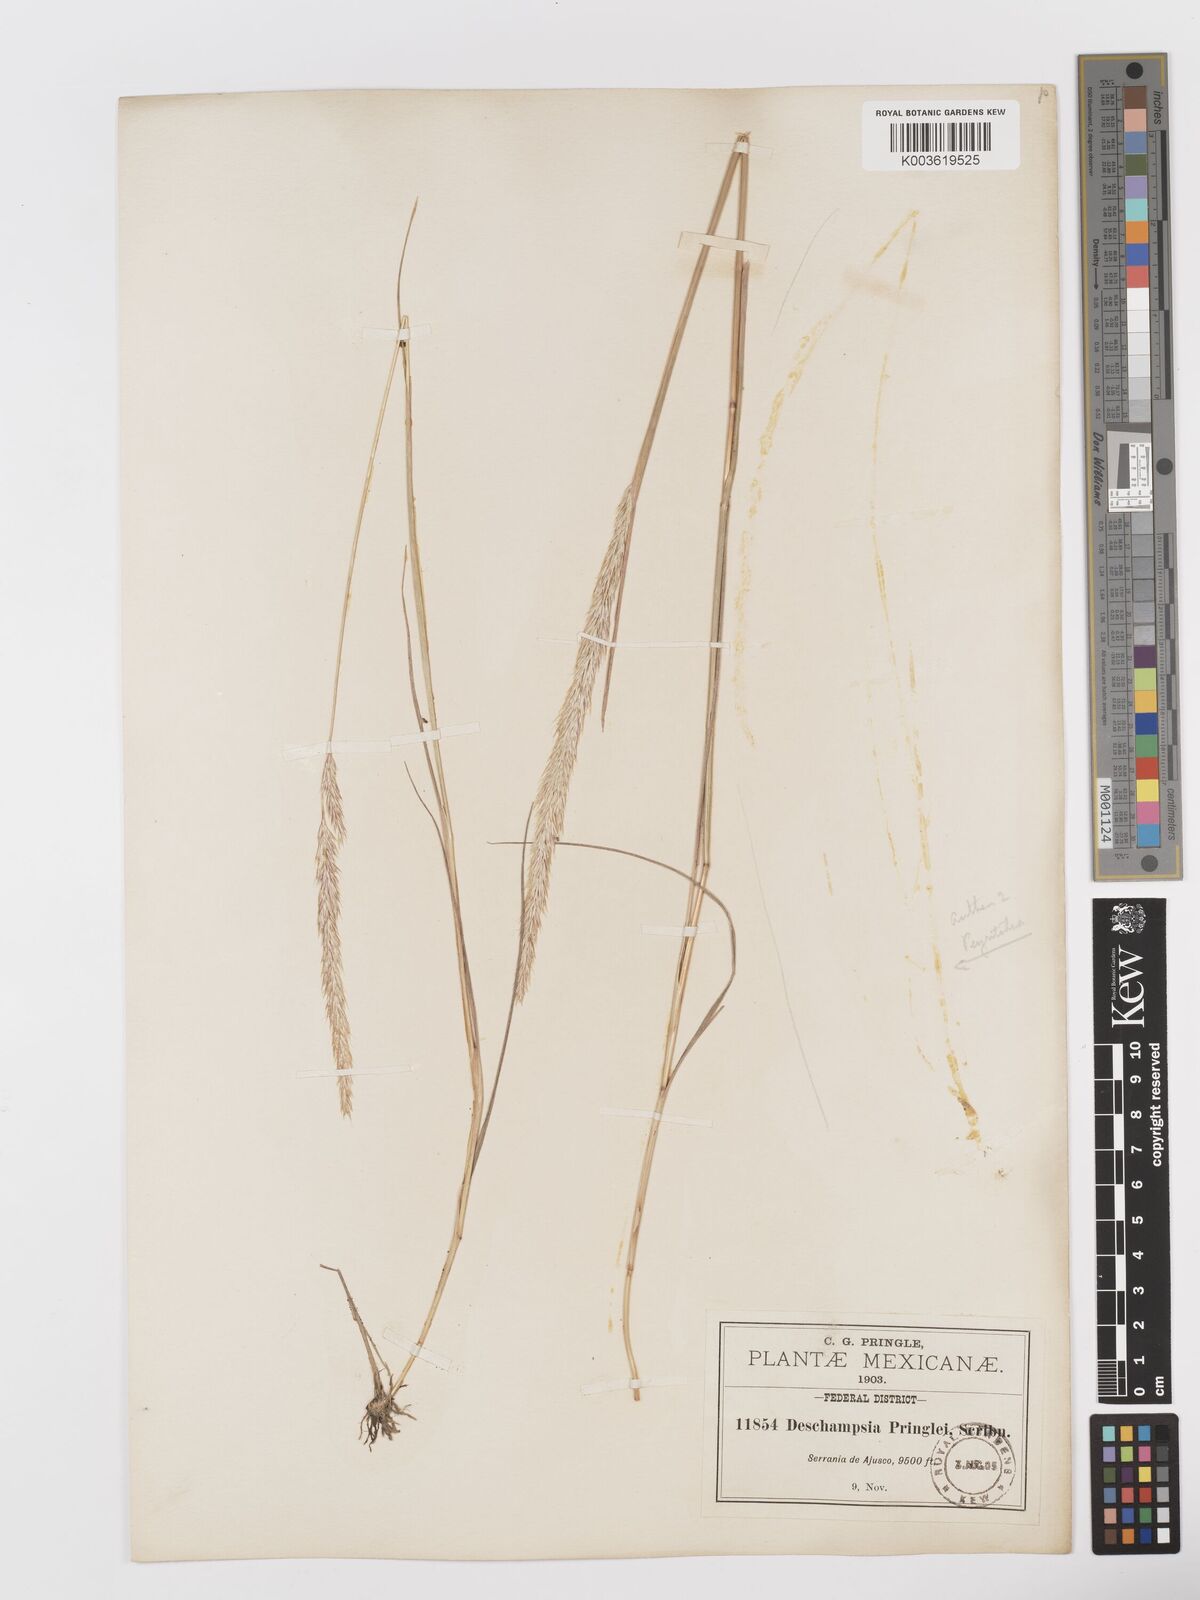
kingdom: Plantae
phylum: Tracheophyta
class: Liliopsida
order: Poales
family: Poaceae
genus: Peyritschia
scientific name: Peyritschia pringlei
